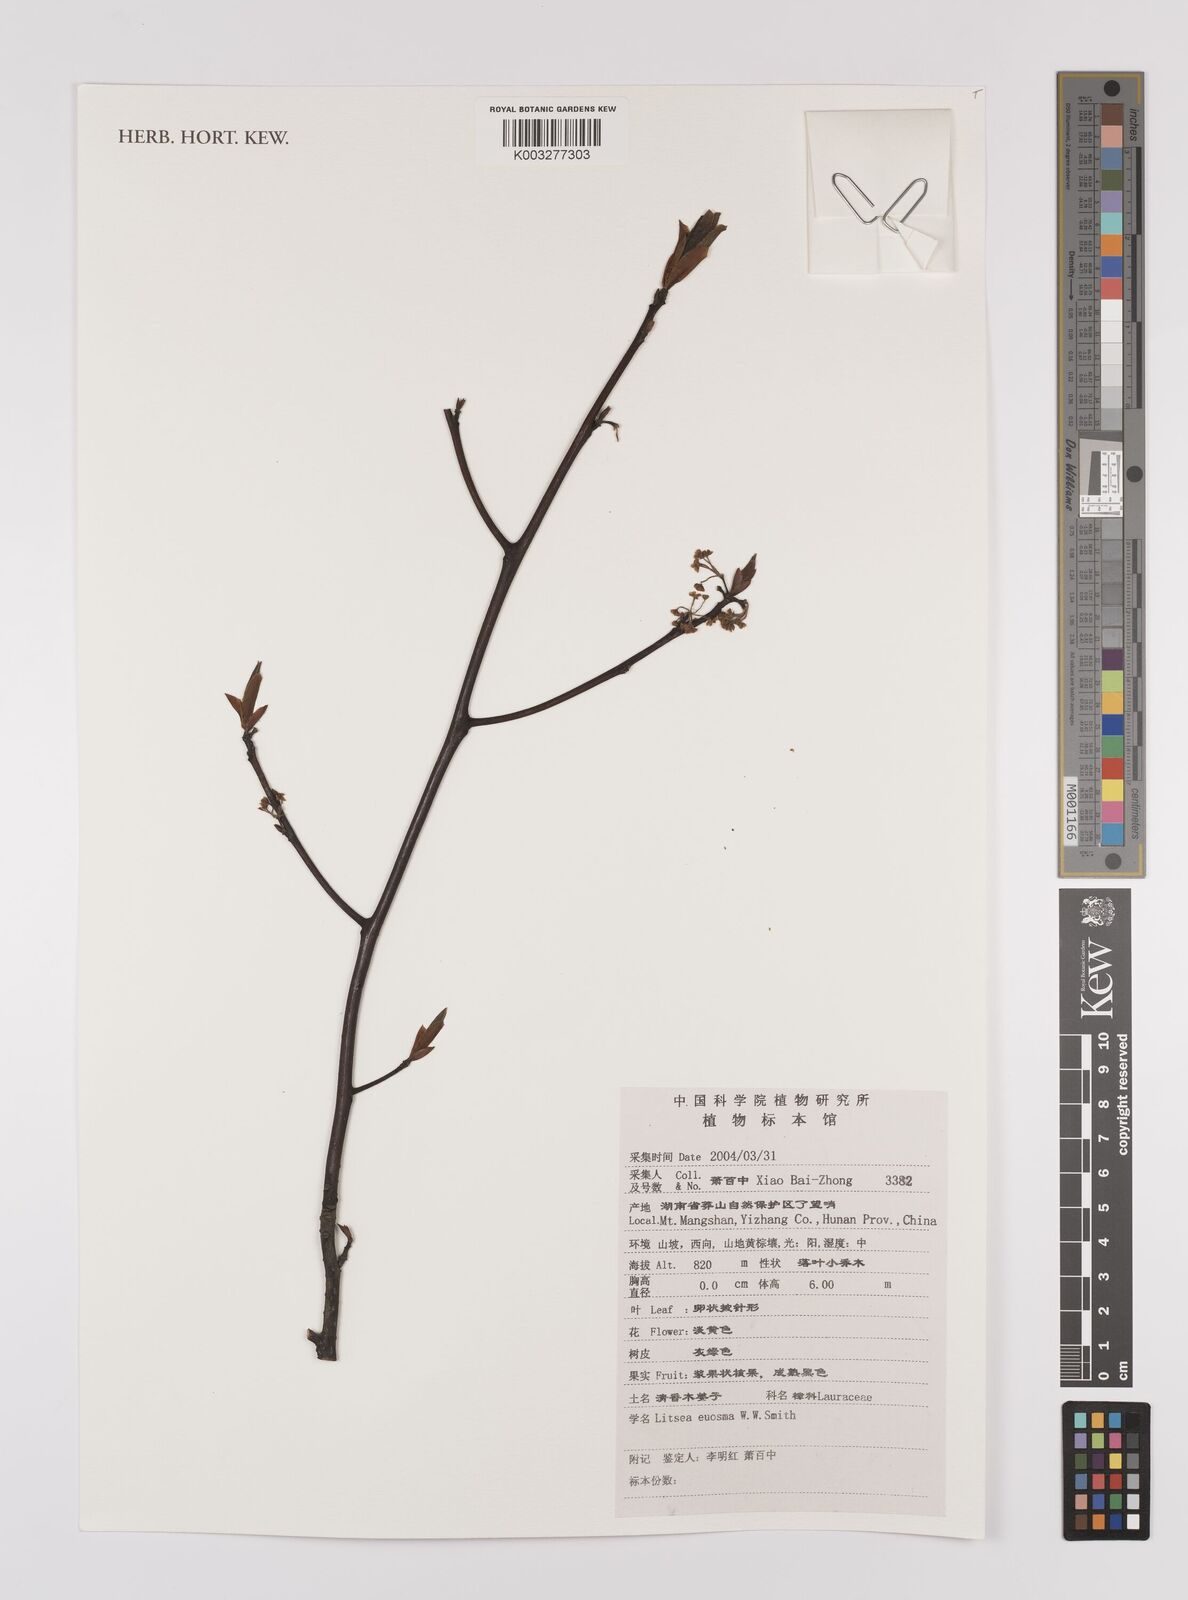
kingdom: Plantae
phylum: Tracheophyta
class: Magnoliopsida
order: Laurales
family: Lauraceae
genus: Litsea
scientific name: Litsea euosma
